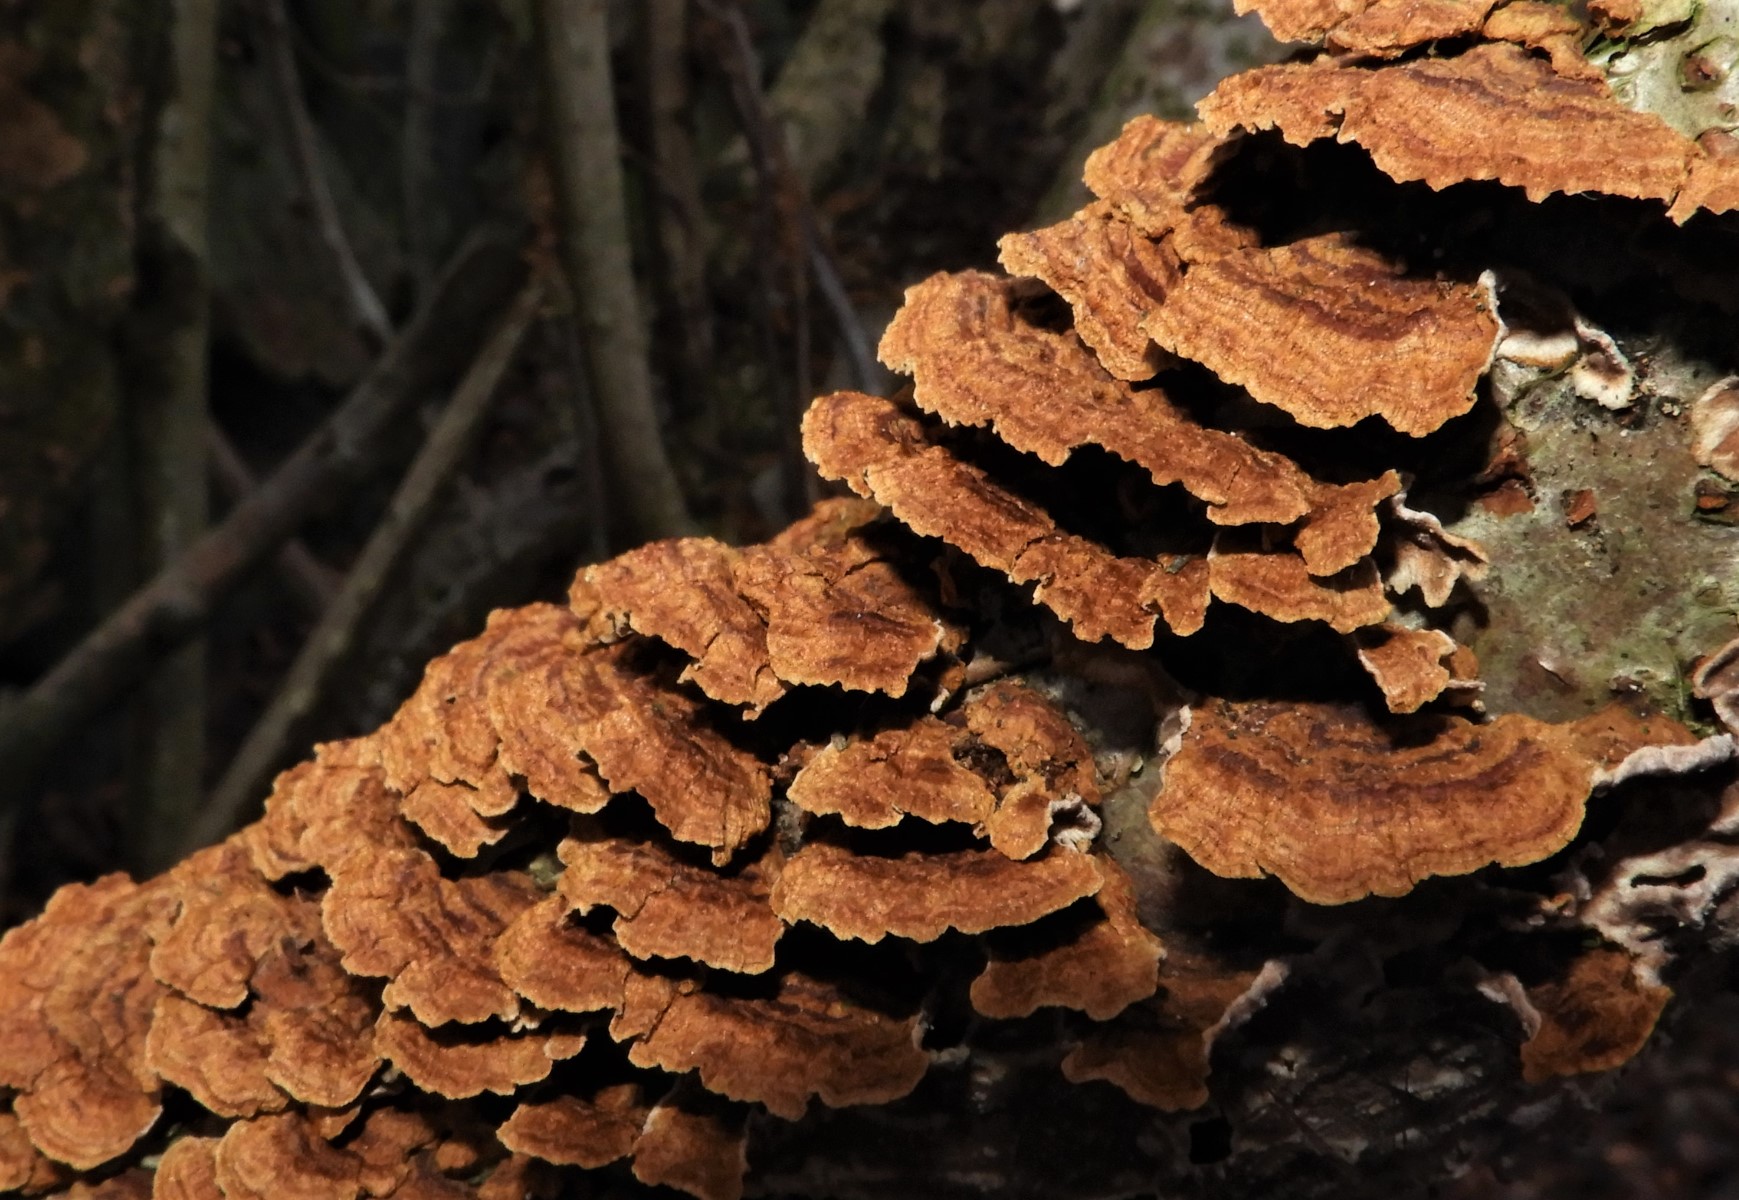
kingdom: Fungi
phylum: Basidiomycota
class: Agaricomycetes
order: Hymenochaetales
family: Hymenochaetaceae
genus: Hydnoporia
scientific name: Hydnoporia tabacina
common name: tobaksbrun ruslædersvamp
